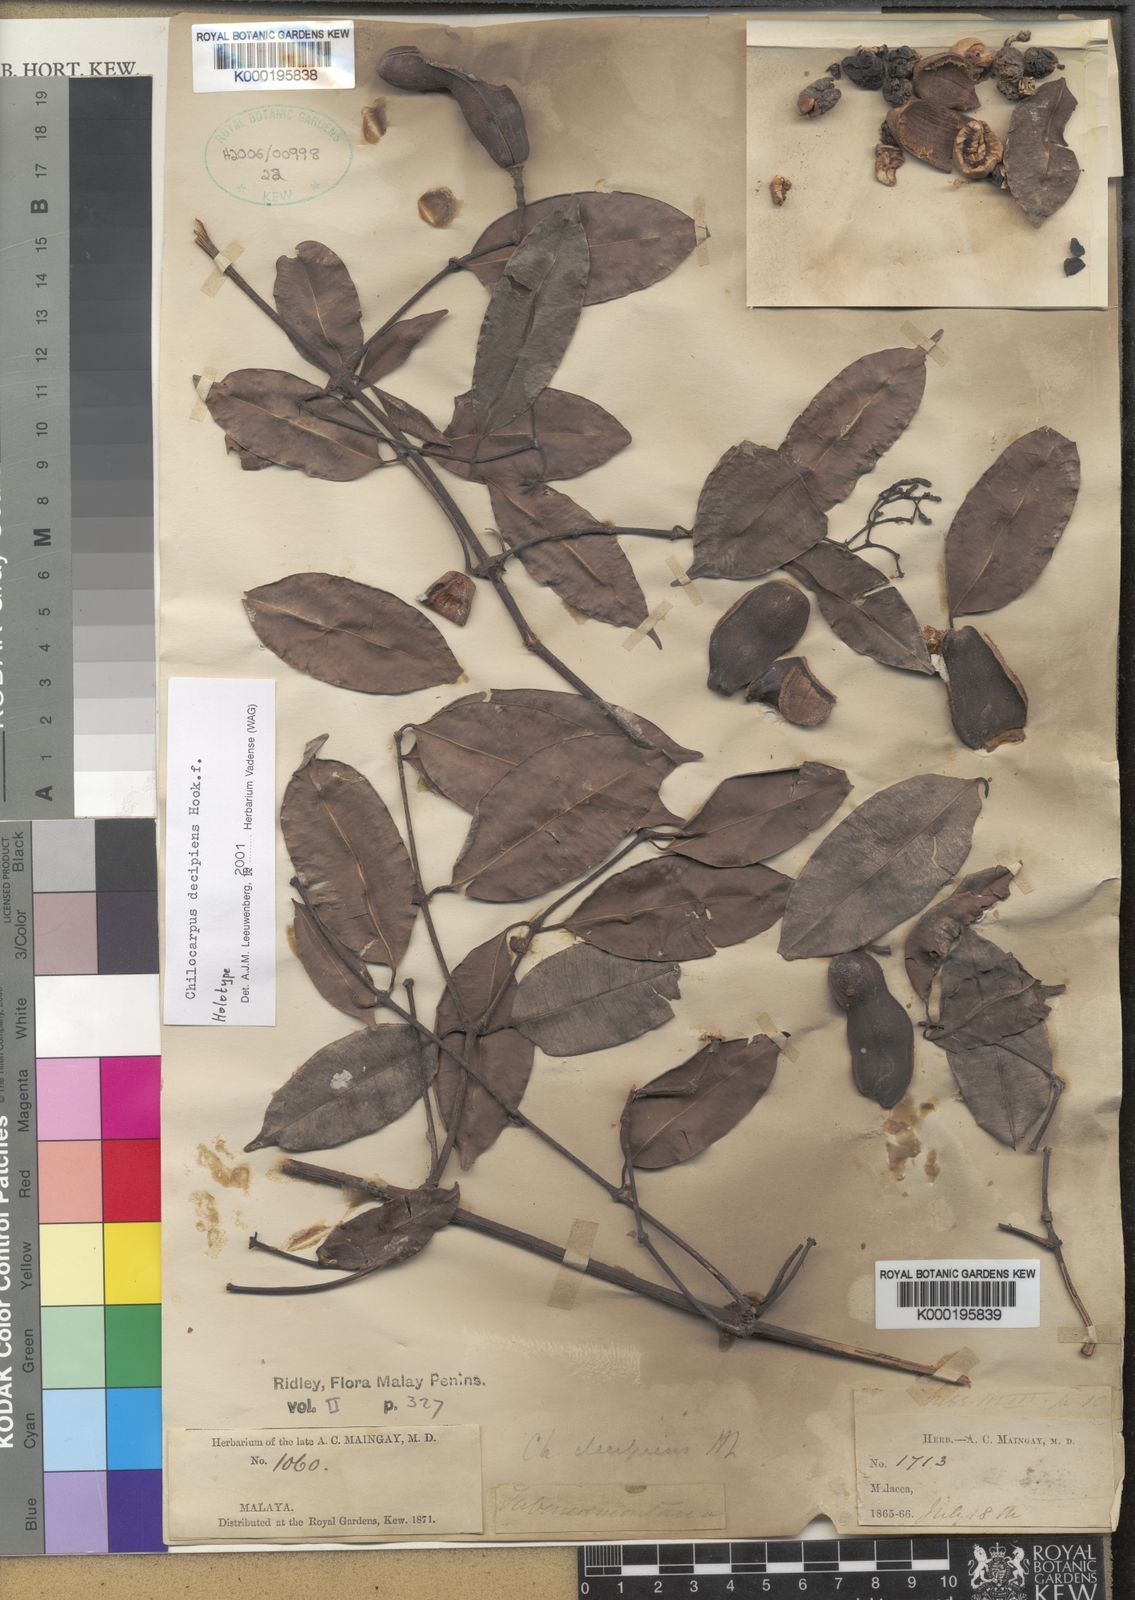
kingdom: Plantae
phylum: Tracheophyta
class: Magnoliopsida
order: Gentianales
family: Apocynaceae
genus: Chilocarpus
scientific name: Chilocarpus decipiens
